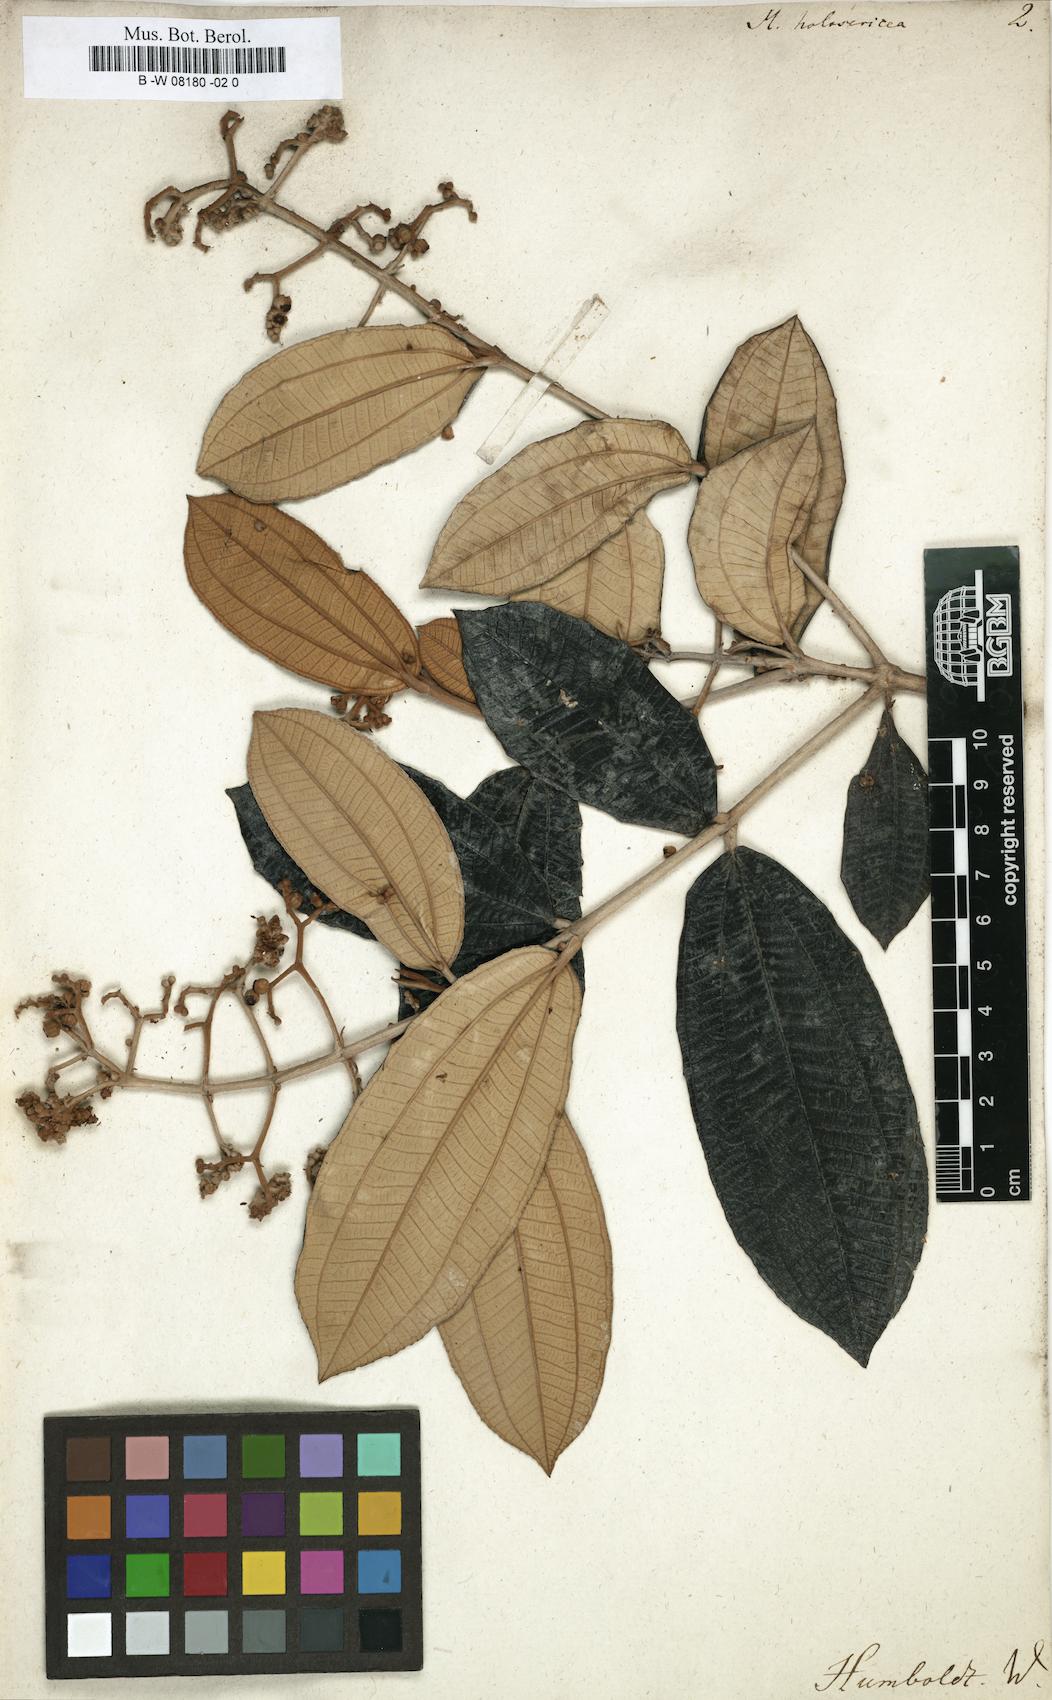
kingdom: Plantae
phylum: Tracheophyta
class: Magnoliopsida
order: Myrtales
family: Melastomataceae
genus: Miconia
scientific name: Miconia holosericea
